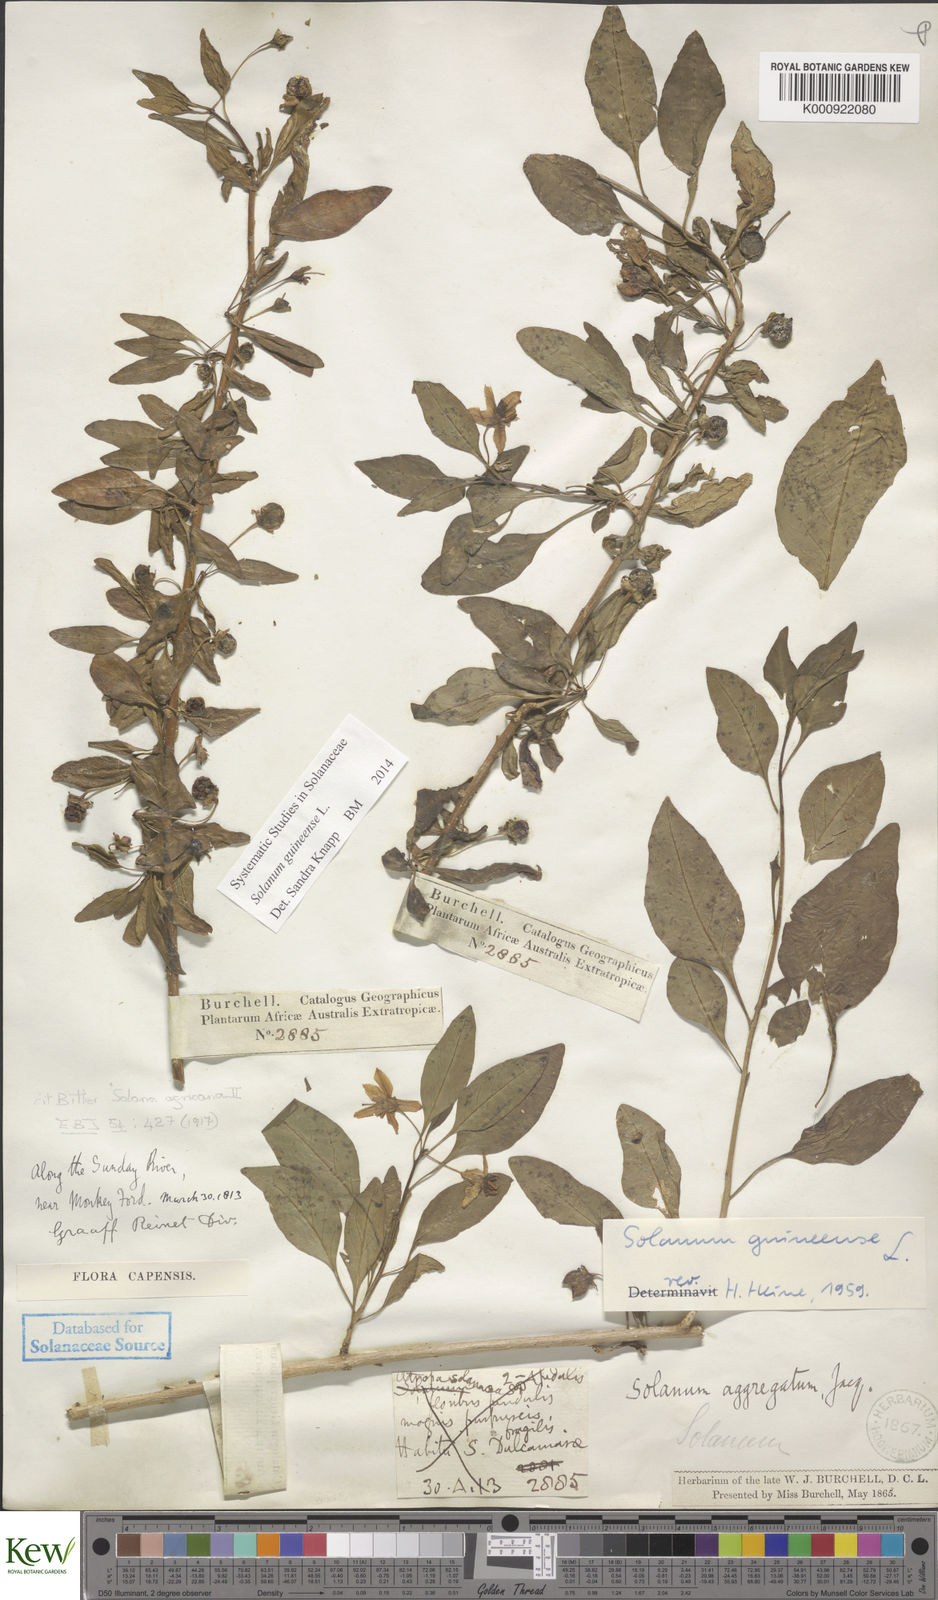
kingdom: Plantae
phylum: Tracheophyta
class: Magnoliopsida
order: Solanales
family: Solanaceae
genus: Solanum
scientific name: Solanum guineense
